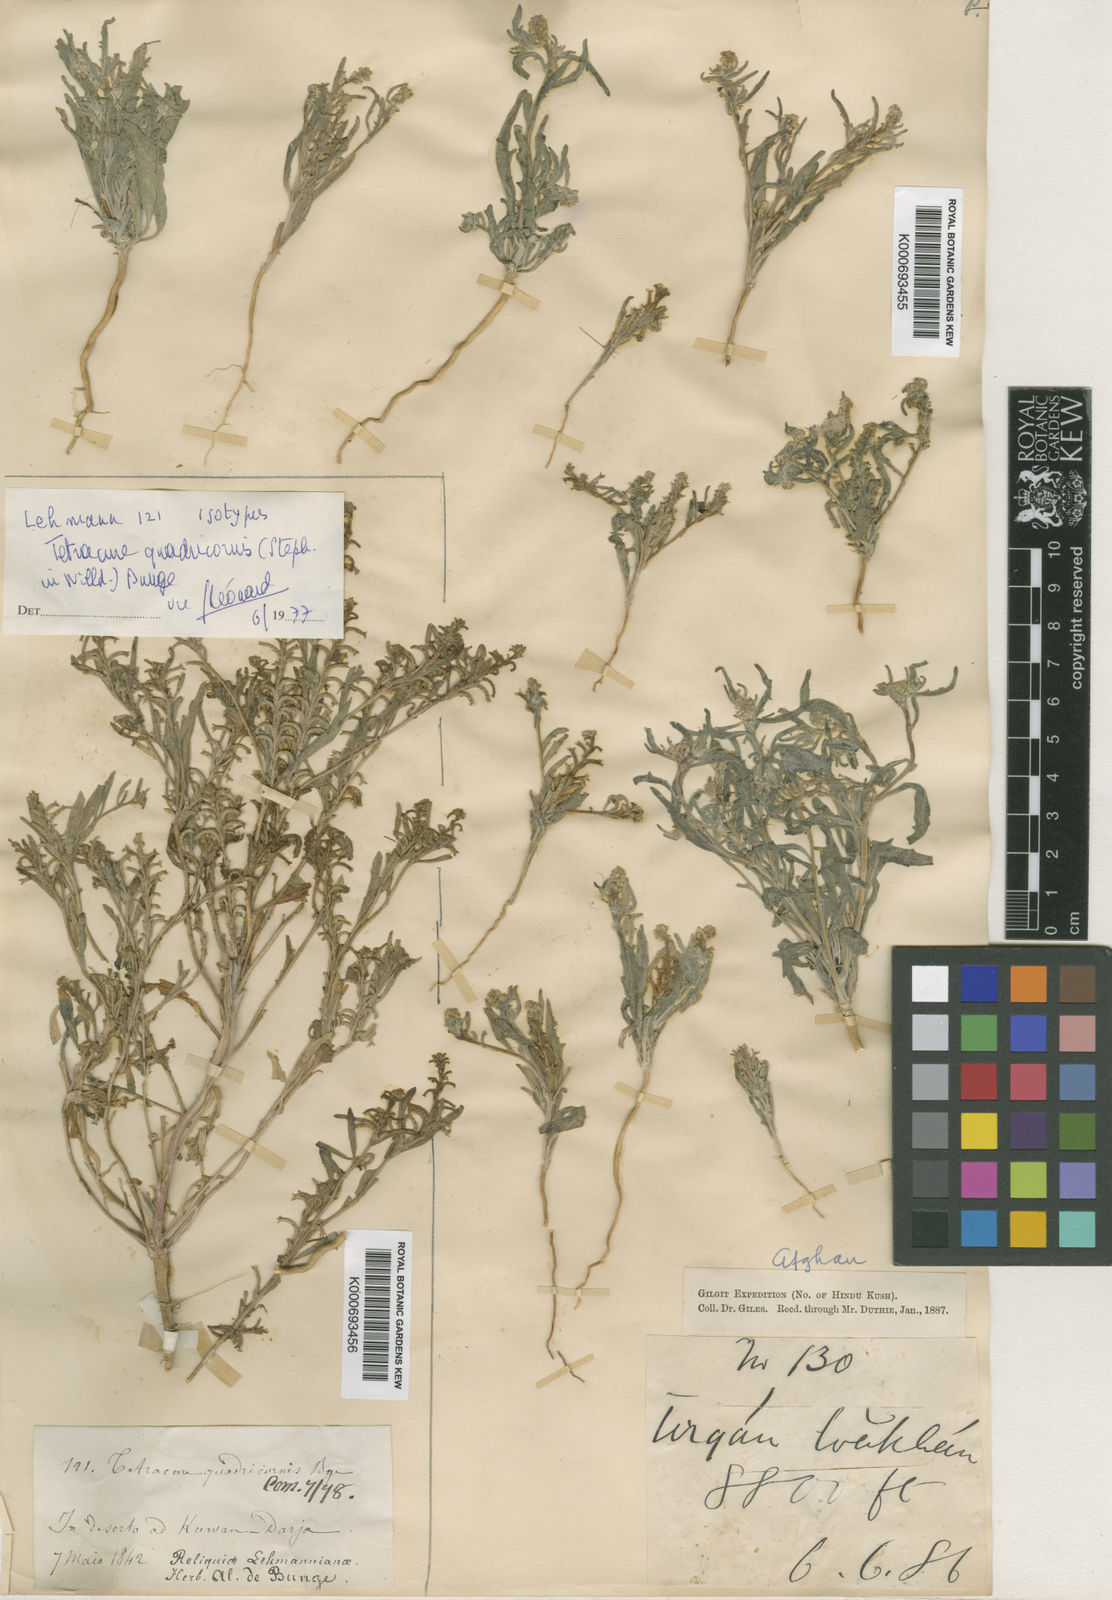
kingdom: Plantae
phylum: Tracheophyta
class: Magnoliopsida
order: Brassicales
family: Brassicaceae
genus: Tetracme
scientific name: Tetracme quadricornis
